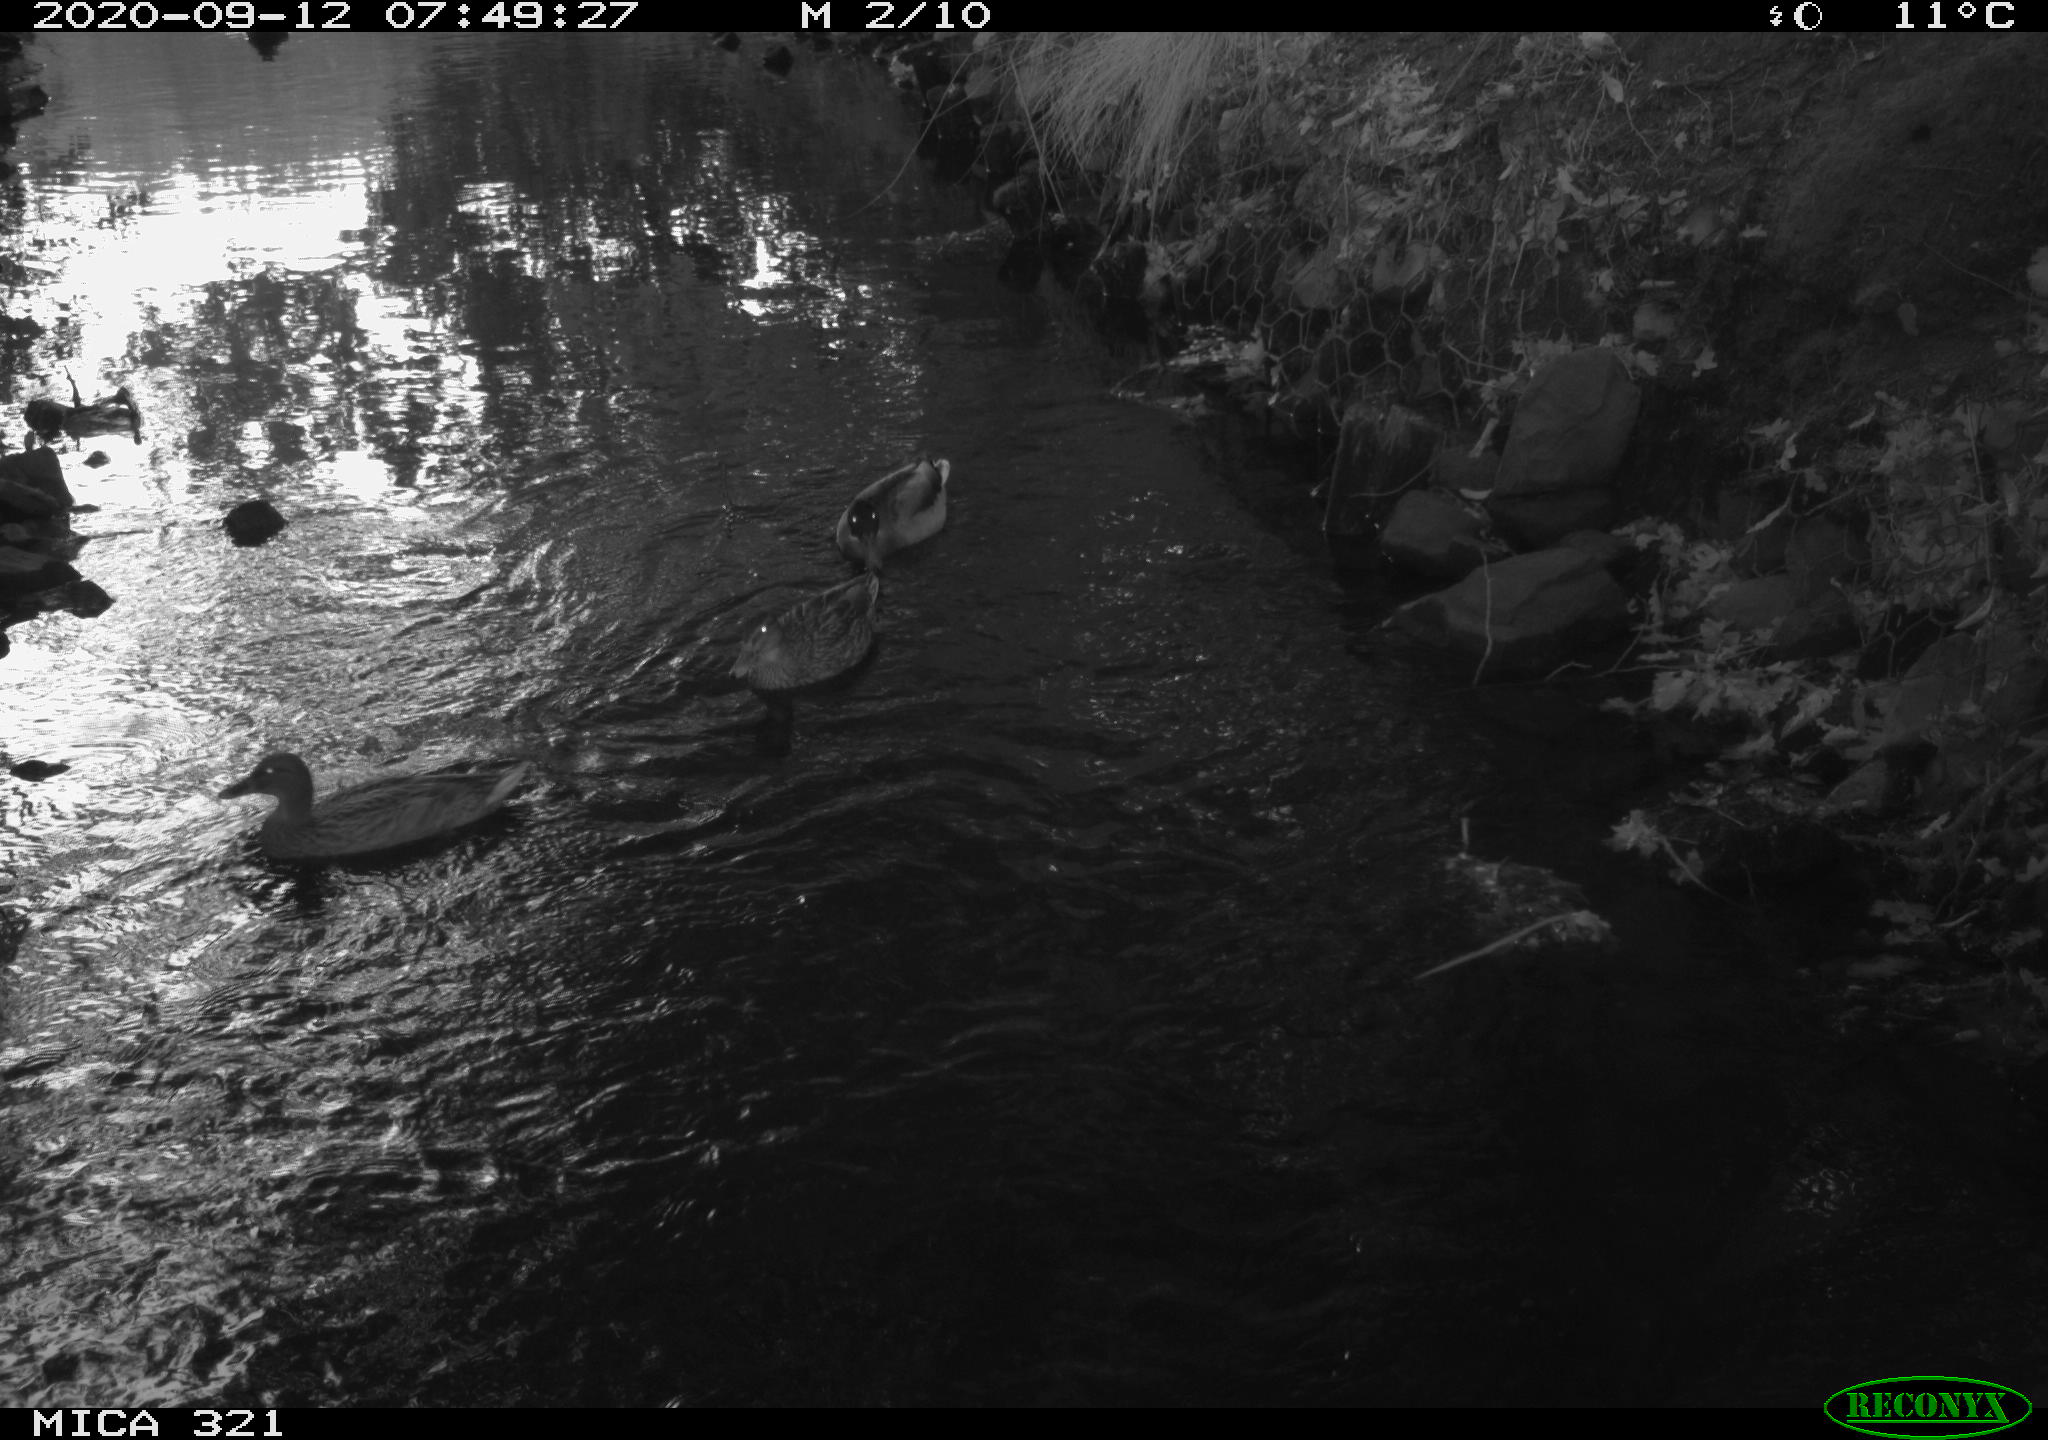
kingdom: Animalia
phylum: Chordata
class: Aves
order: Anseriformes
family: Anatidae
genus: Anas
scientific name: Anas platyrhynchos
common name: Mallard
